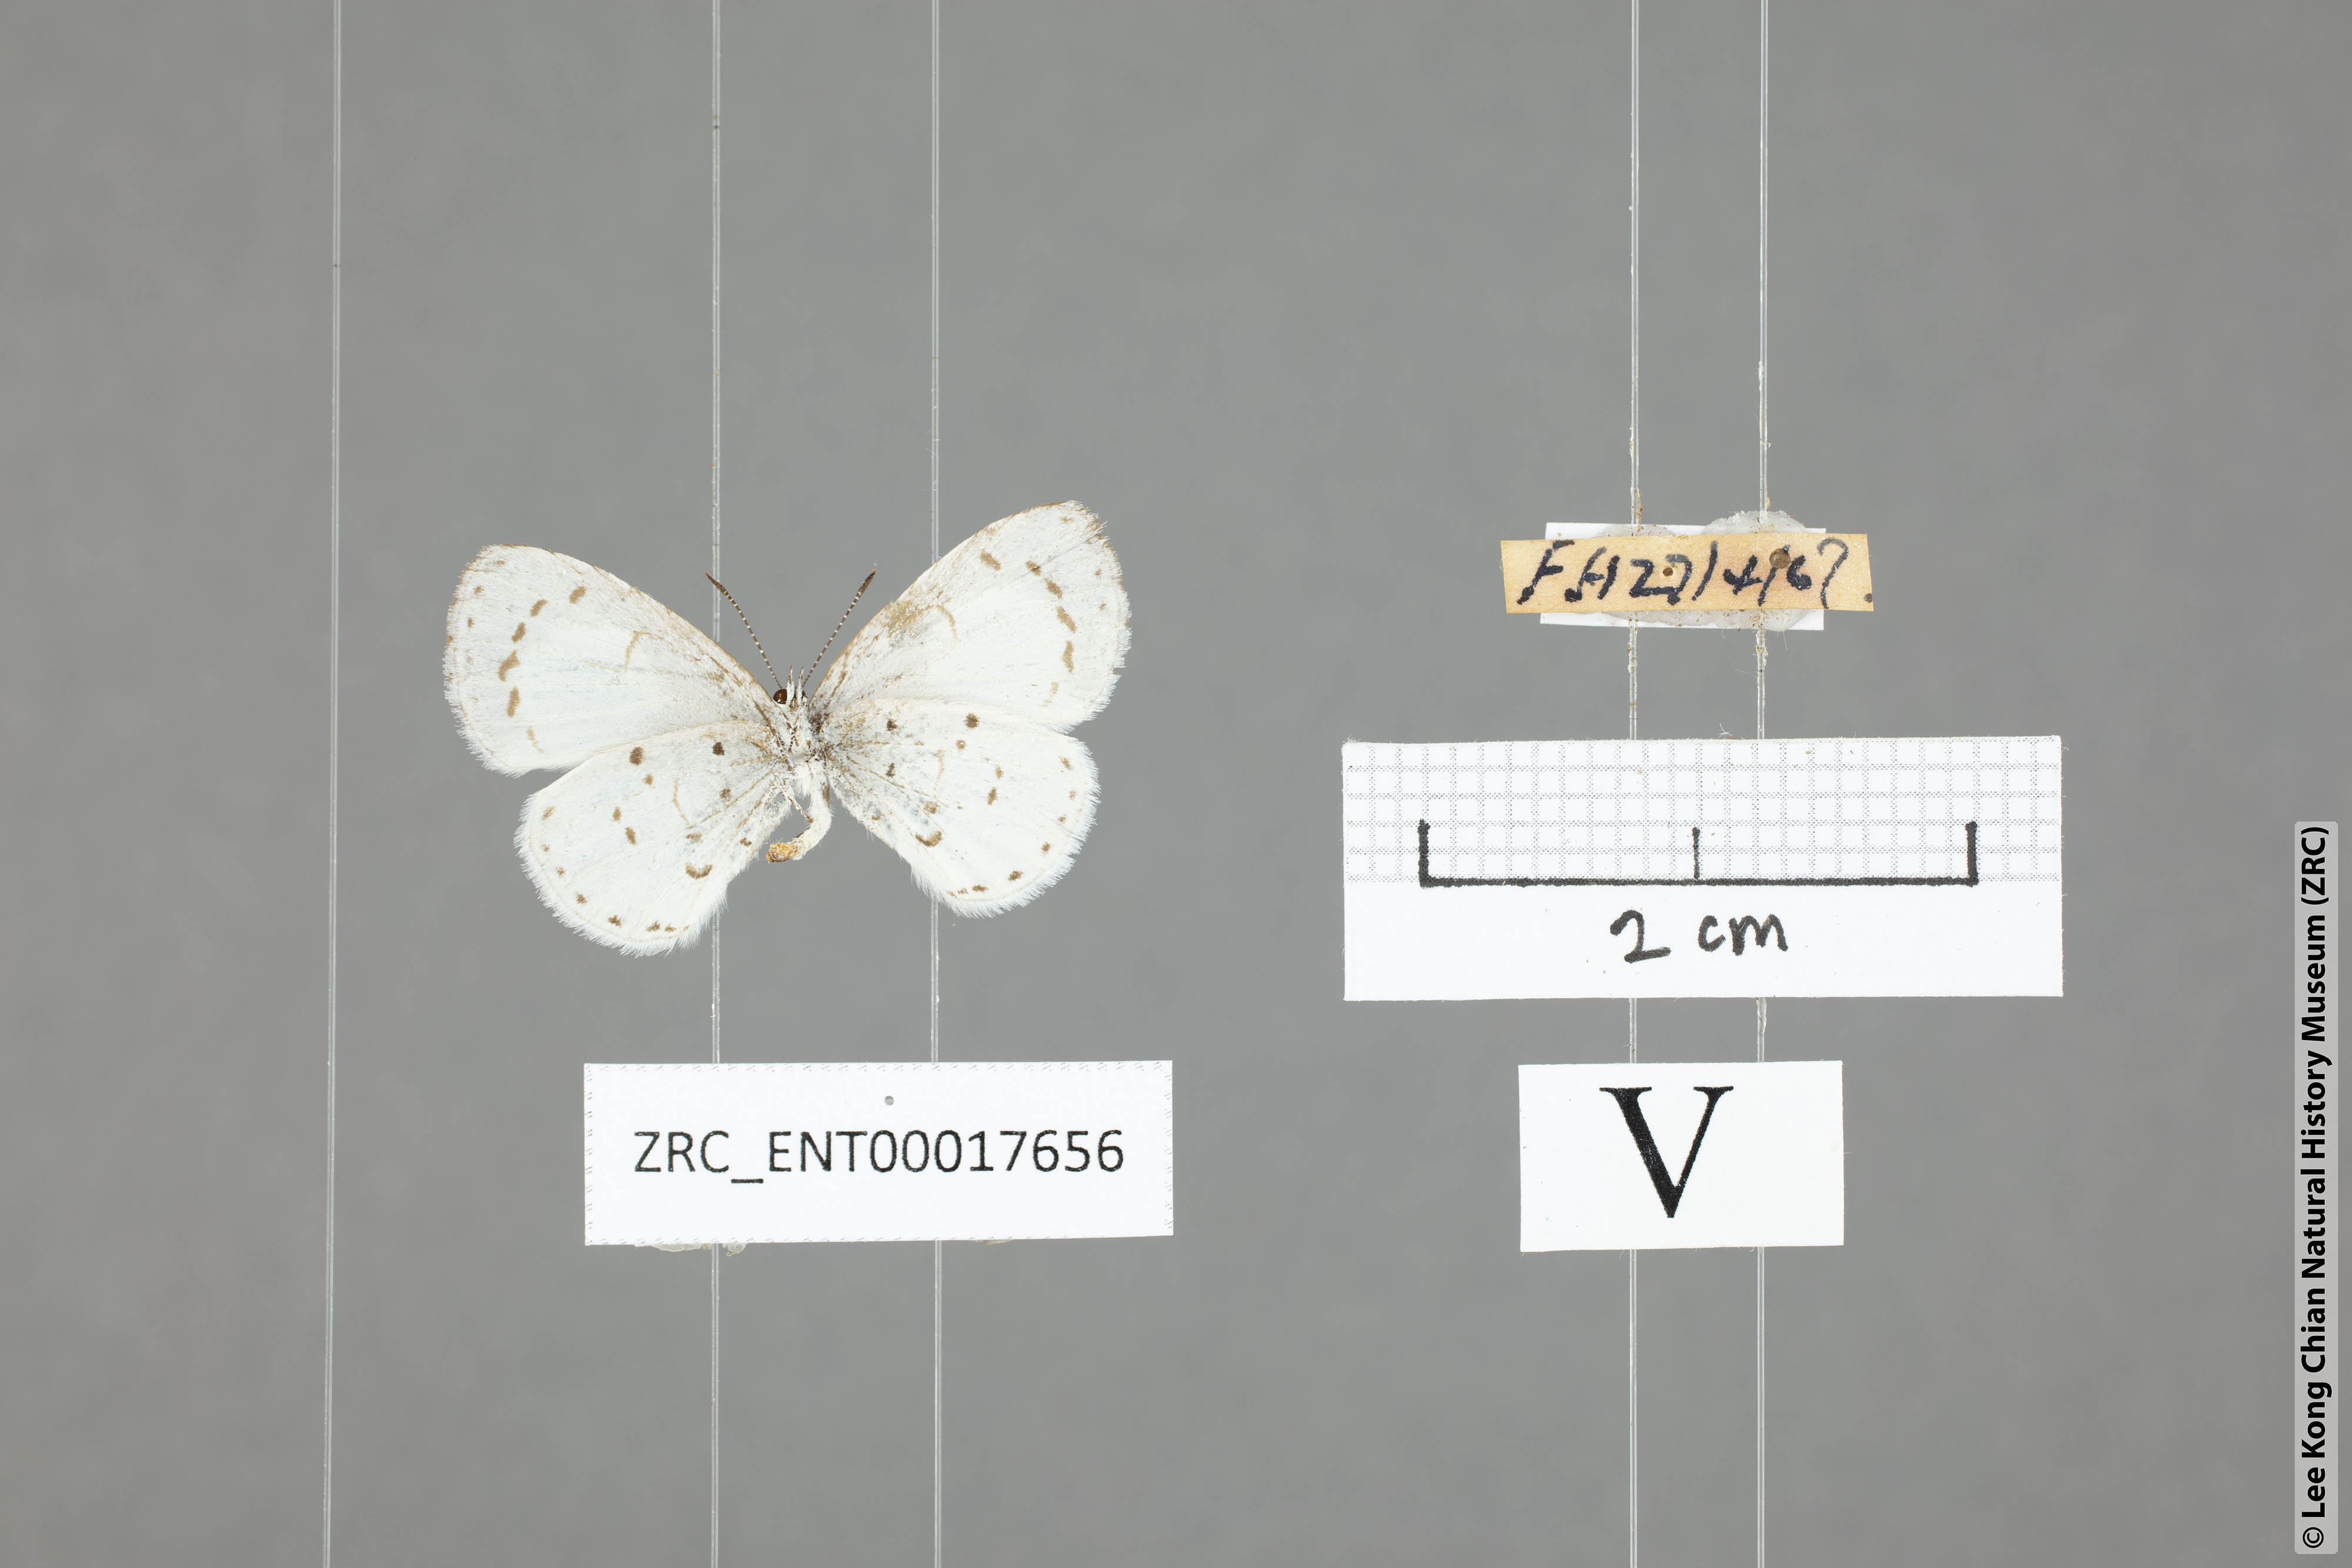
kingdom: Animalia
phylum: Arthropoda
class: Insecta
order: Lepidoptera
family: Lycaenidae
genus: Udara
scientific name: Udara akasa
